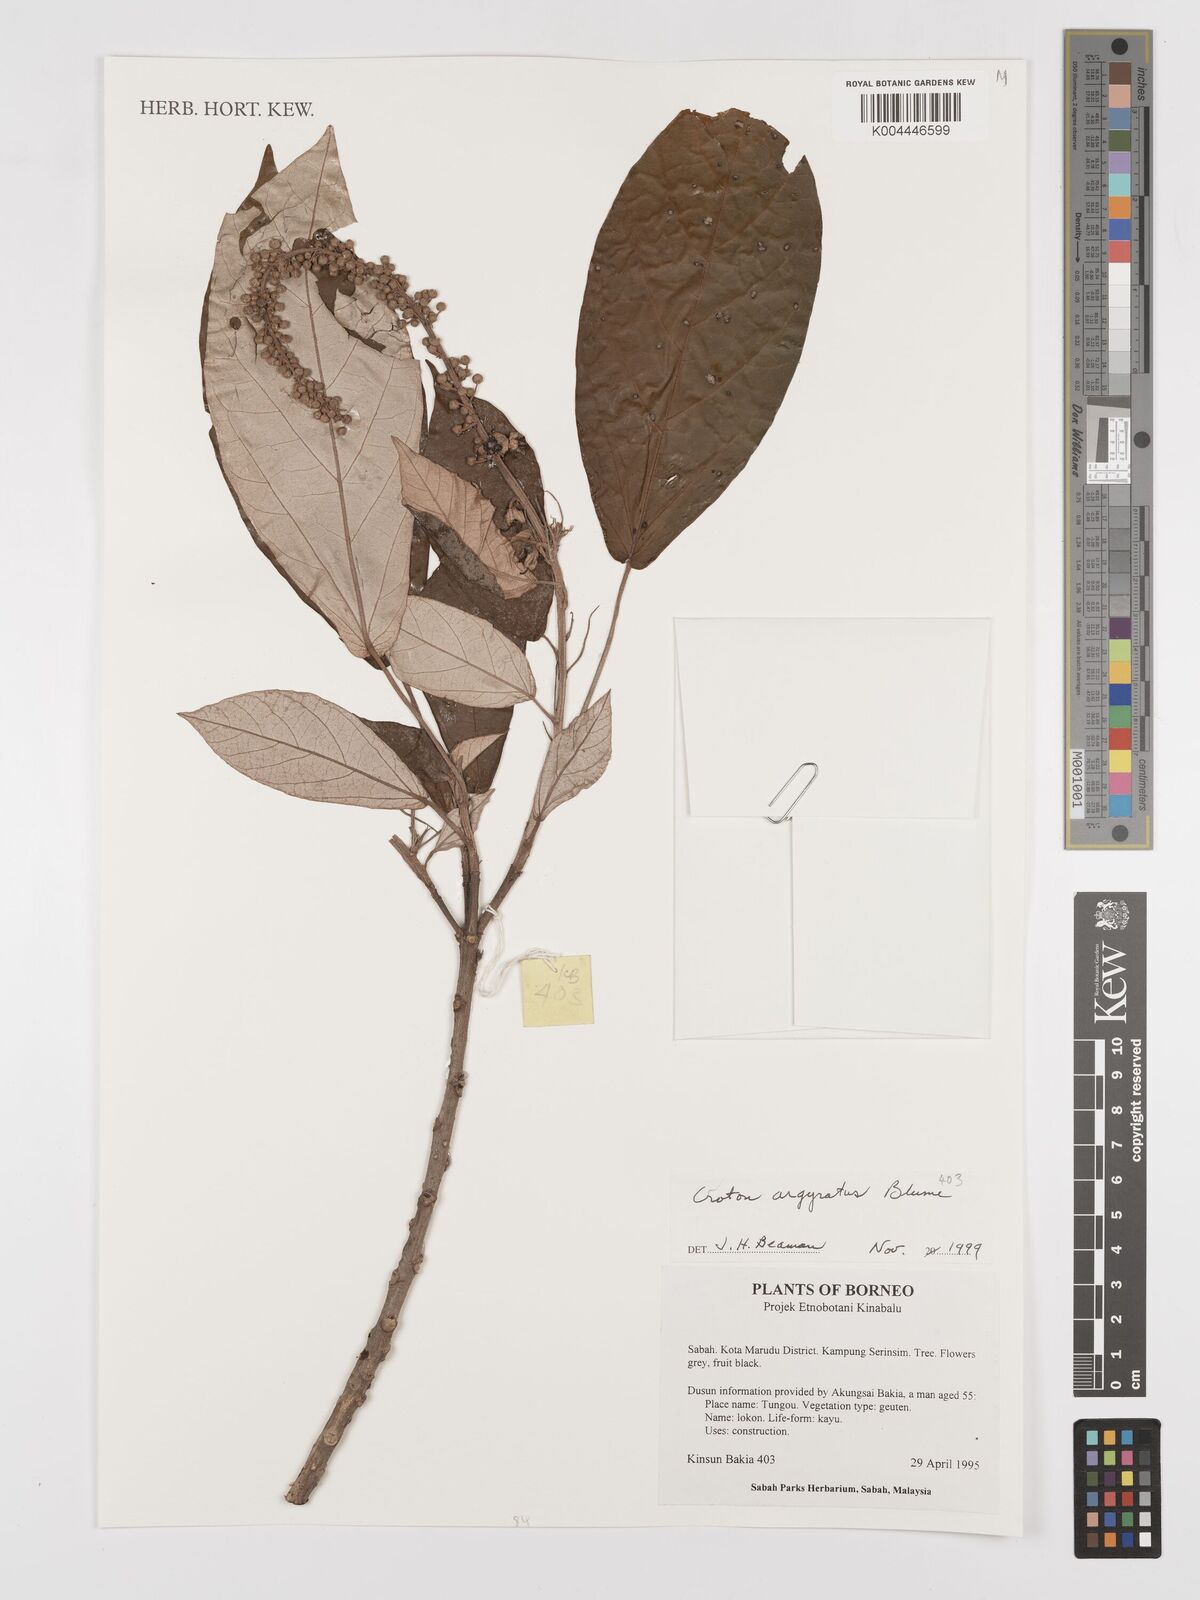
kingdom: Plantae
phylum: Tracheophyta
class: Magnoliopsida
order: Malpighiales
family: Euphorbiaceae
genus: Croton
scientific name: Croton argyratus
